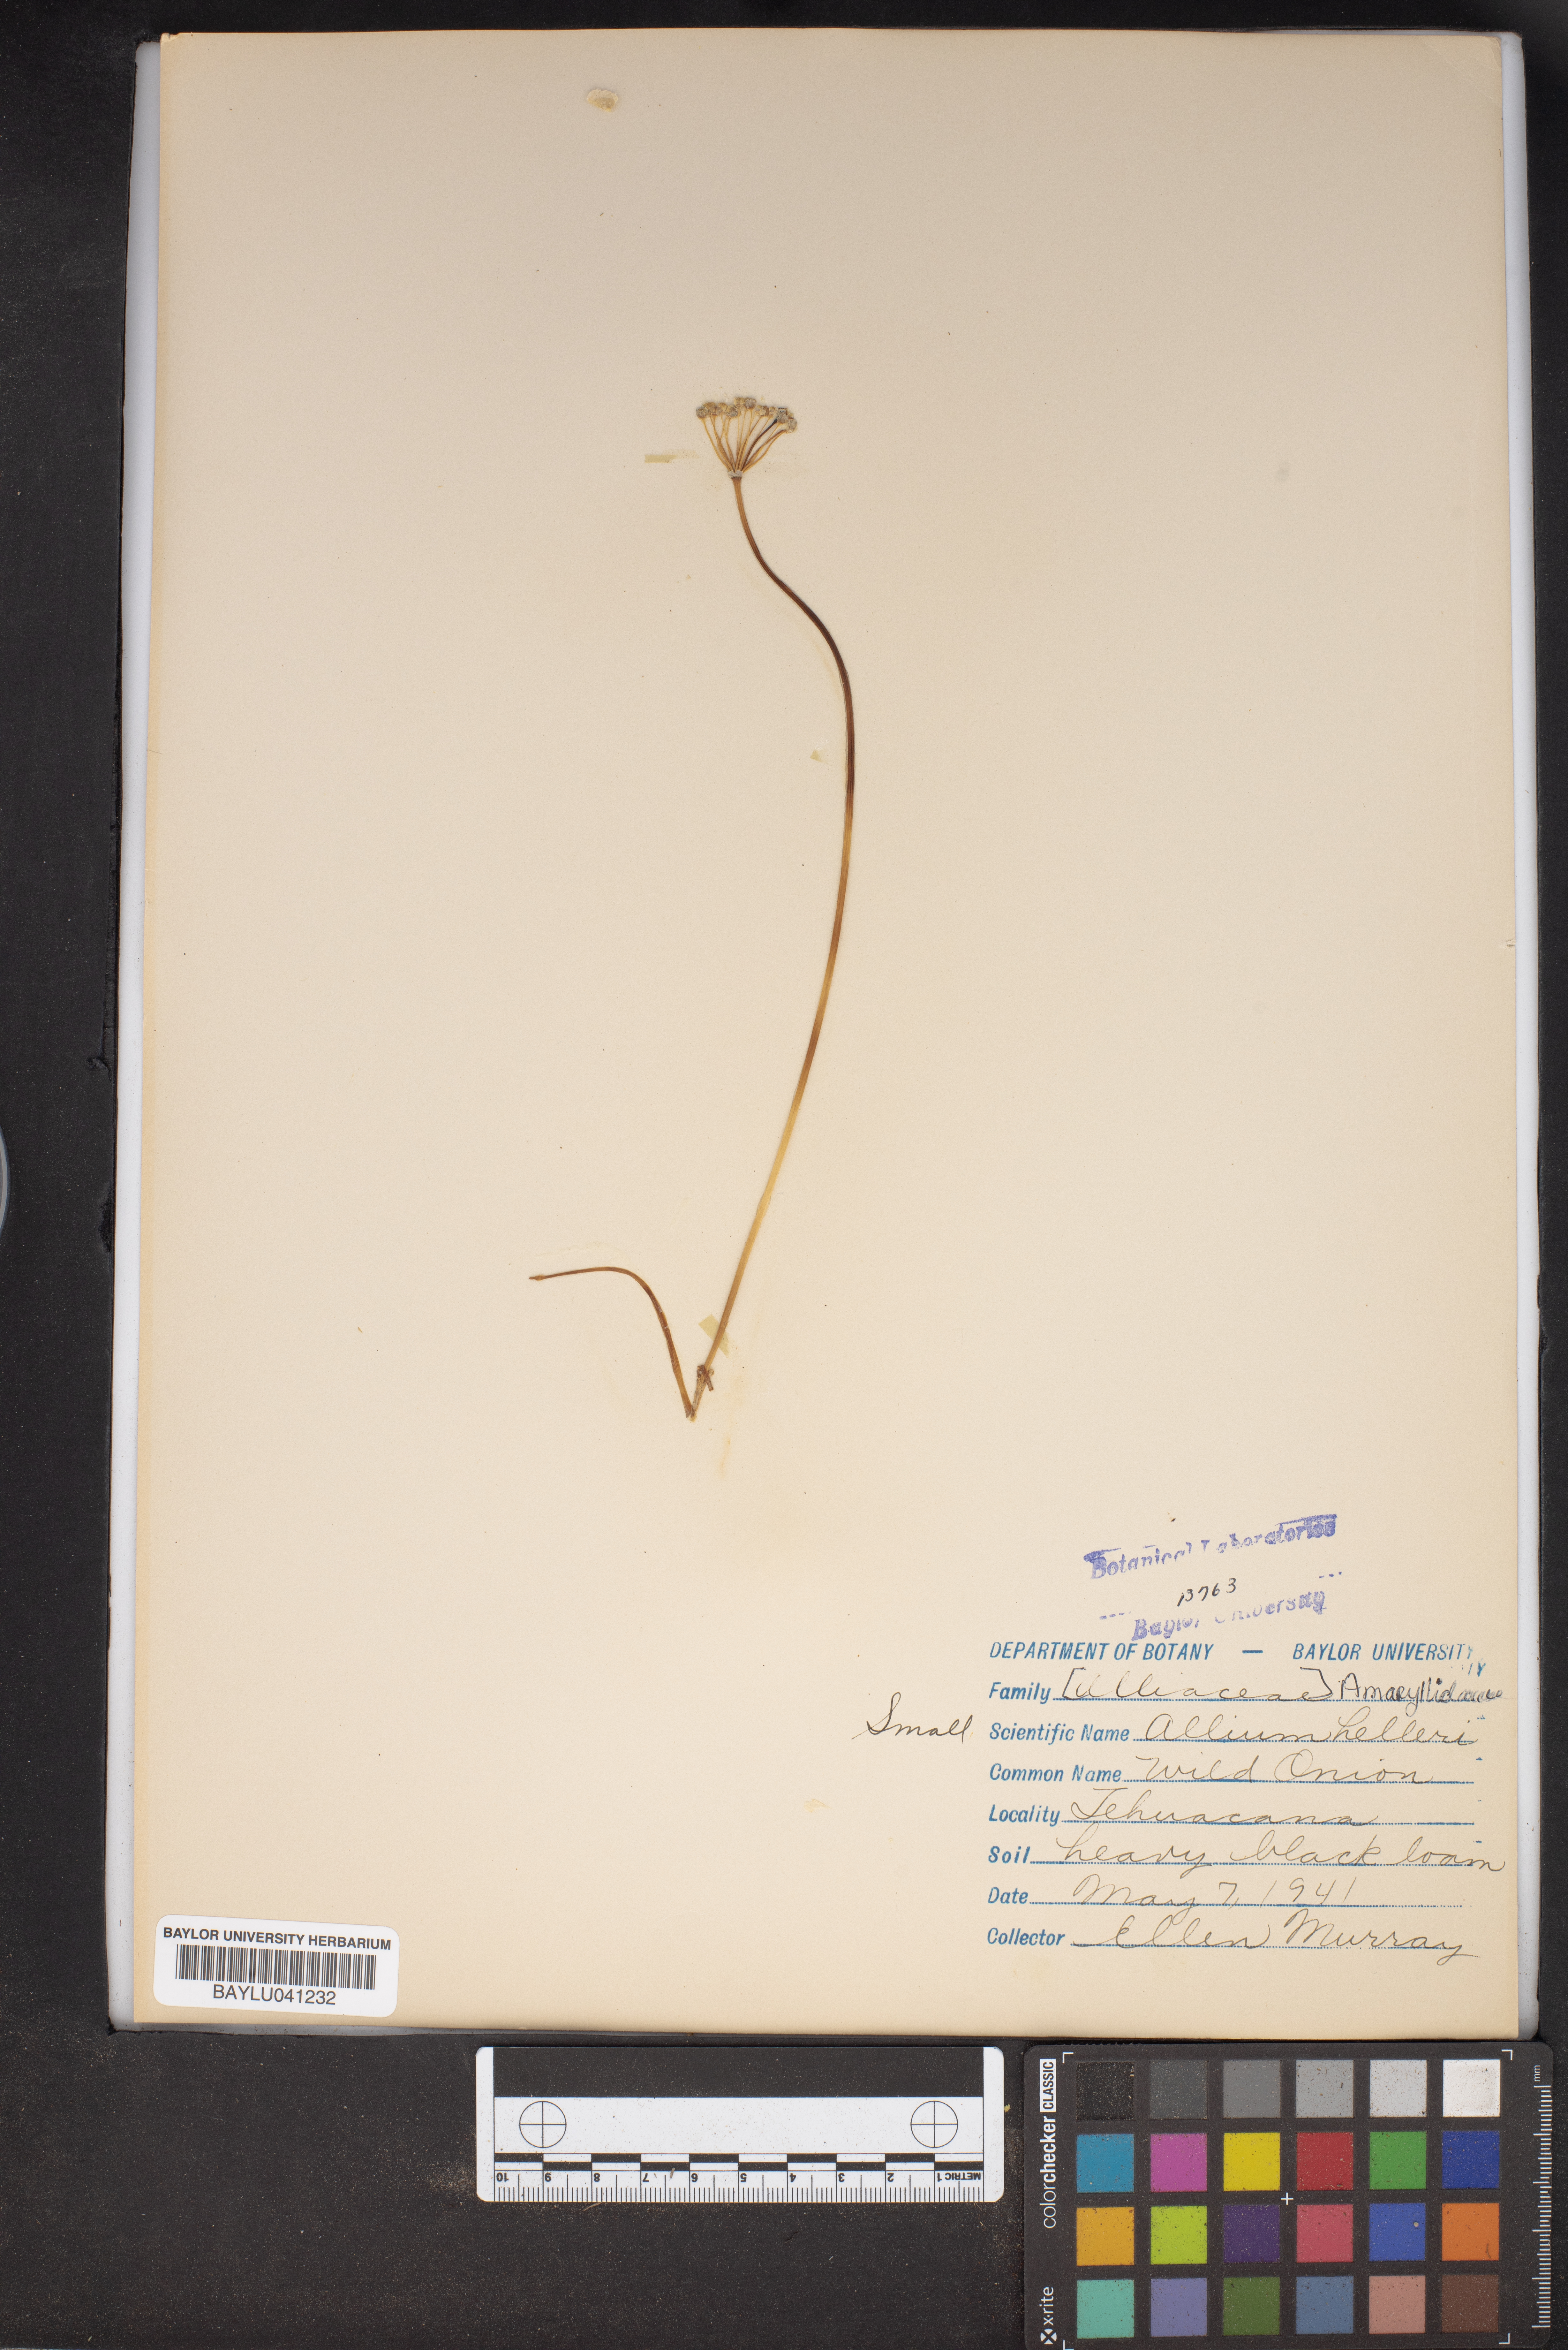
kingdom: Plantae
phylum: Tracheophyta
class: Liliopsida
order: Asparagales
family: Amaryllidaceae
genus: Allium
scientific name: Allium drummondii
